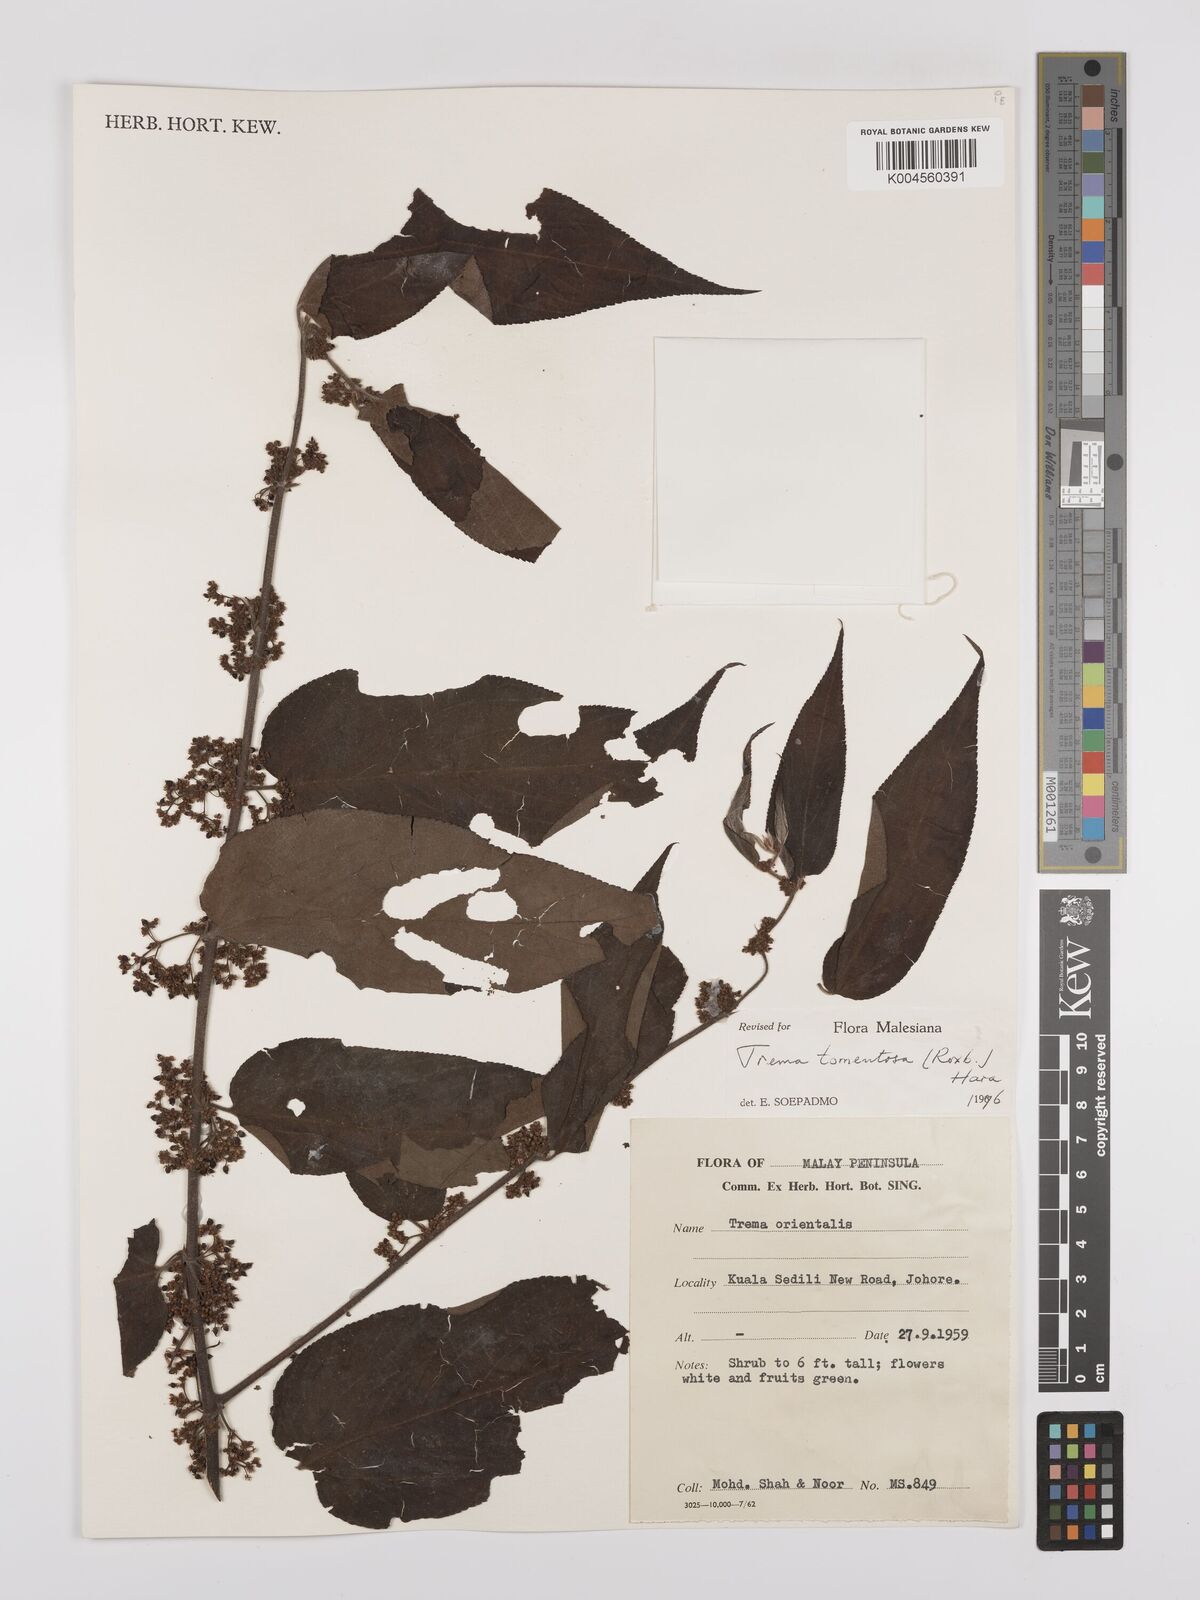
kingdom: Plantae
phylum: Tracheophyta
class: Magnoliopsida
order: Rosales
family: Cannabaceae
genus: Trema
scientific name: Trema tomentosum
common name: Peach-leaf-poisonbush
